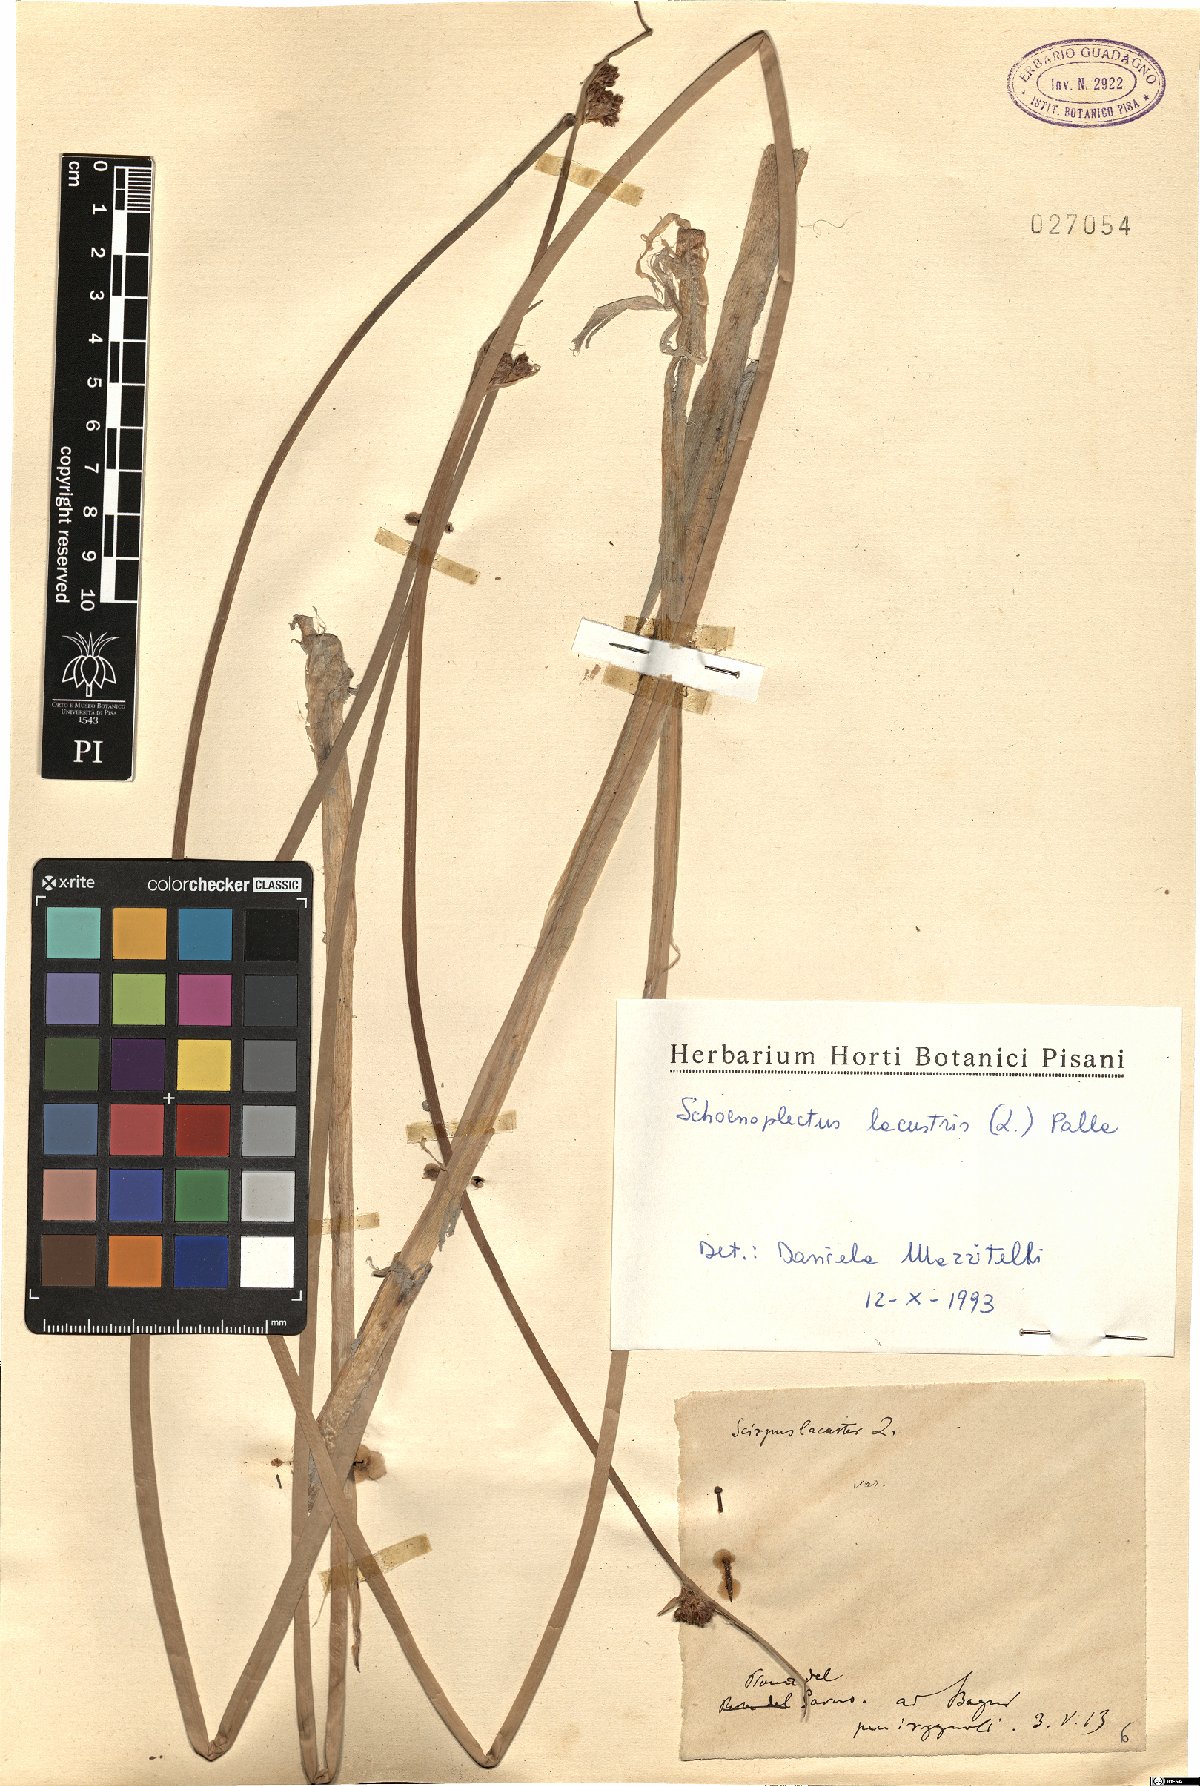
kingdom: Plantae
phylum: Tracheophyta
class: Liliopsida
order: Poales
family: Cyperaceae
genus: Schoenoplectus
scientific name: Schoenoplectus lacustris
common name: Common club-rush
